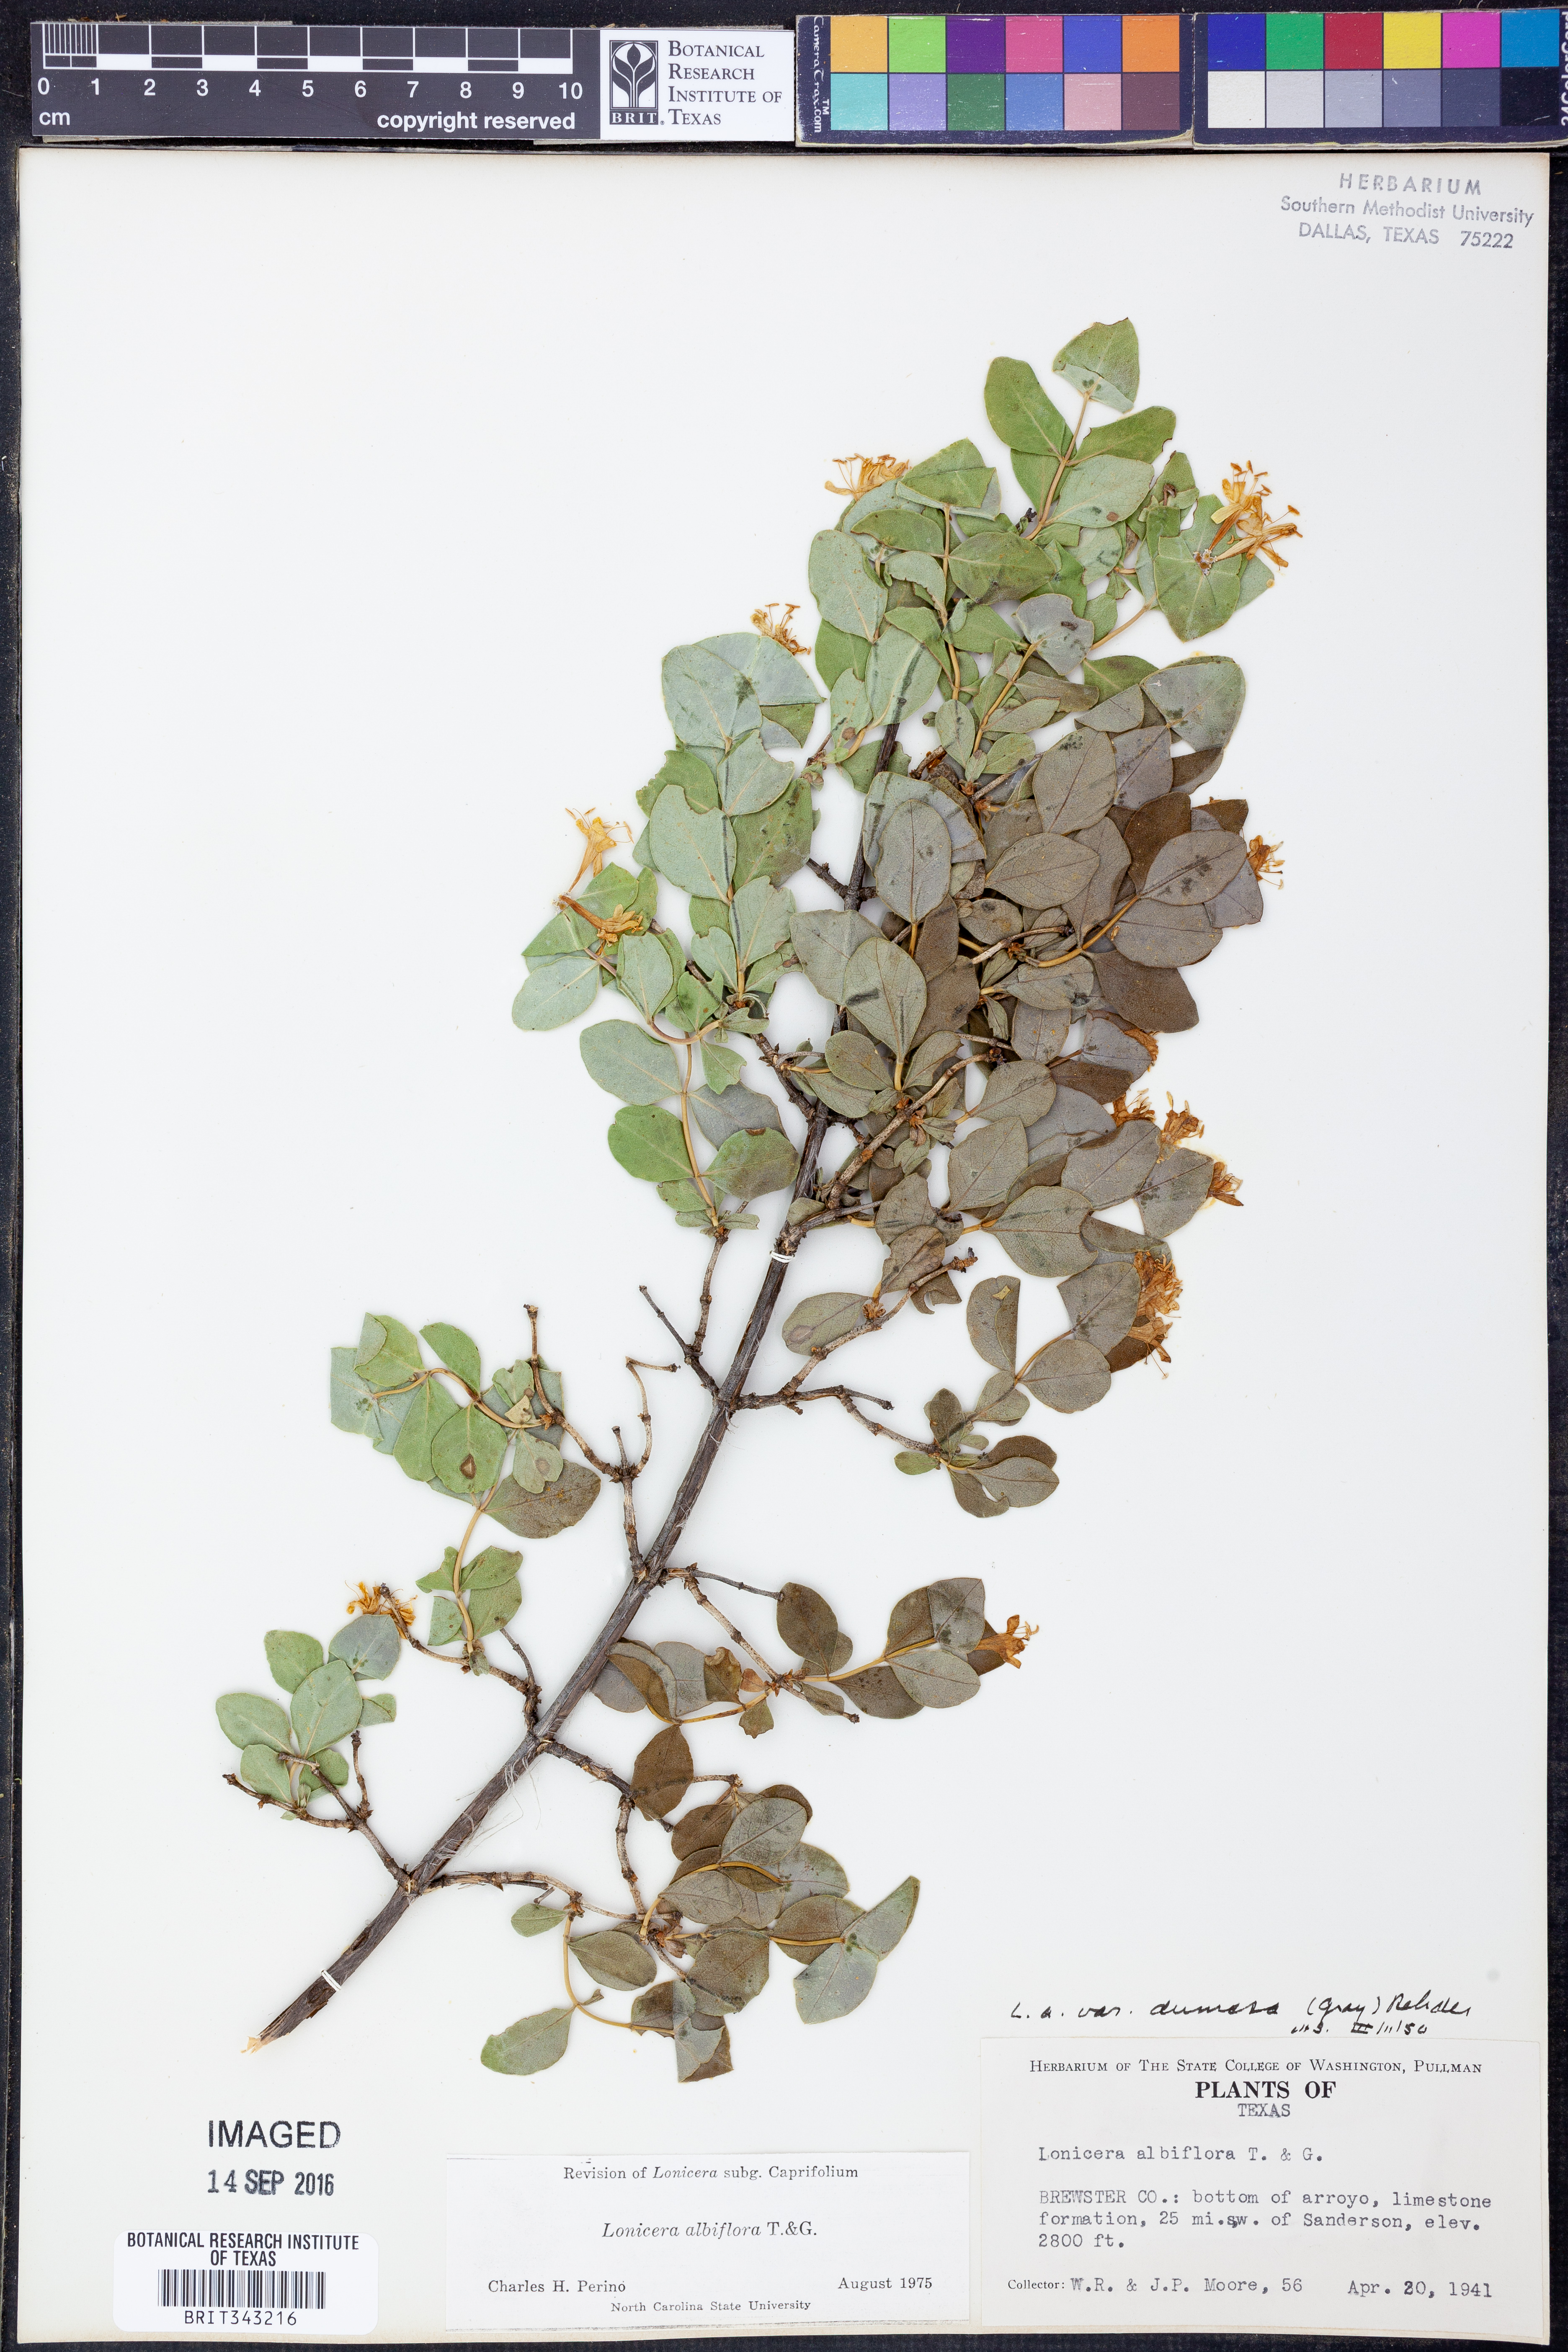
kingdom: Plantae
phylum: Tracheophyta
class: Magnoliopsida
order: Dipsacales
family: Caprifoliaceae
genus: Lonicera
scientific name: Lonicera albiflora
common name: White honeysuckle
